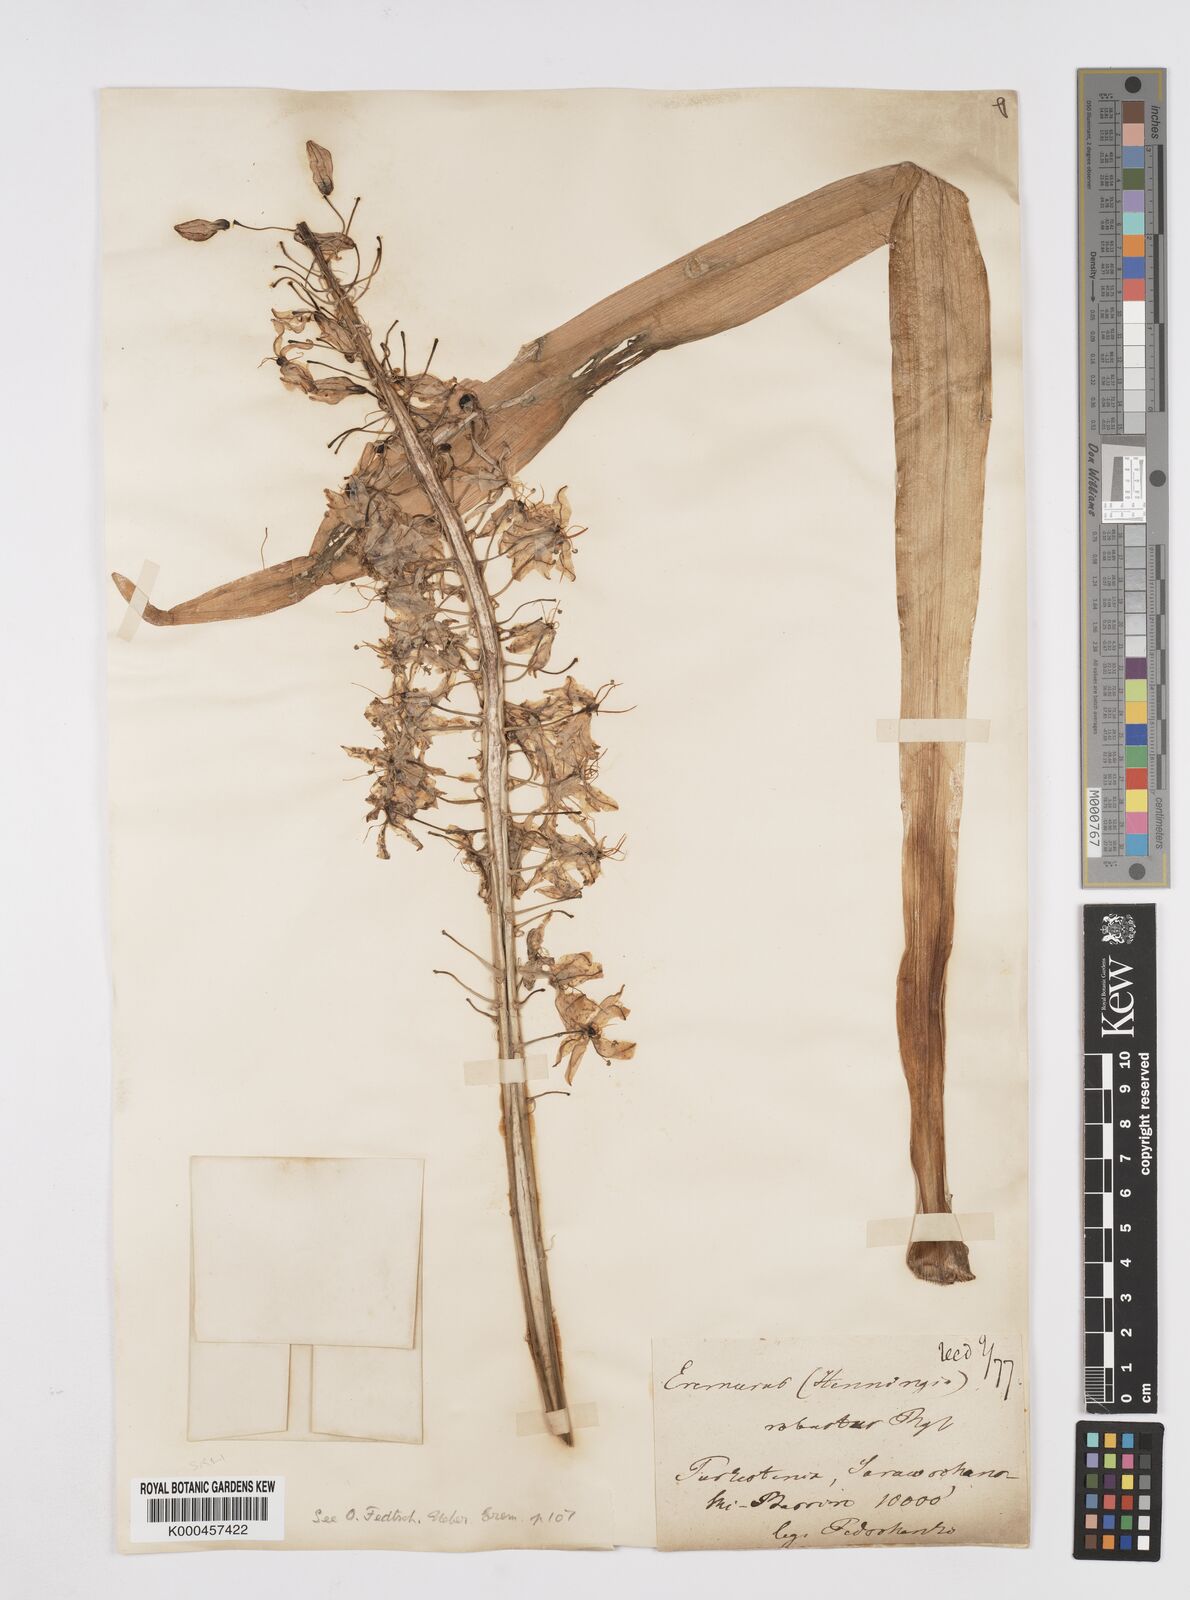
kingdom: Plantae
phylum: Tracheophyta
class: Liliopsida
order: Asparagales
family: Asphodelaceae
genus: Eremurus
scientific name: Eremurus robustus
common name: Foxtail lily
